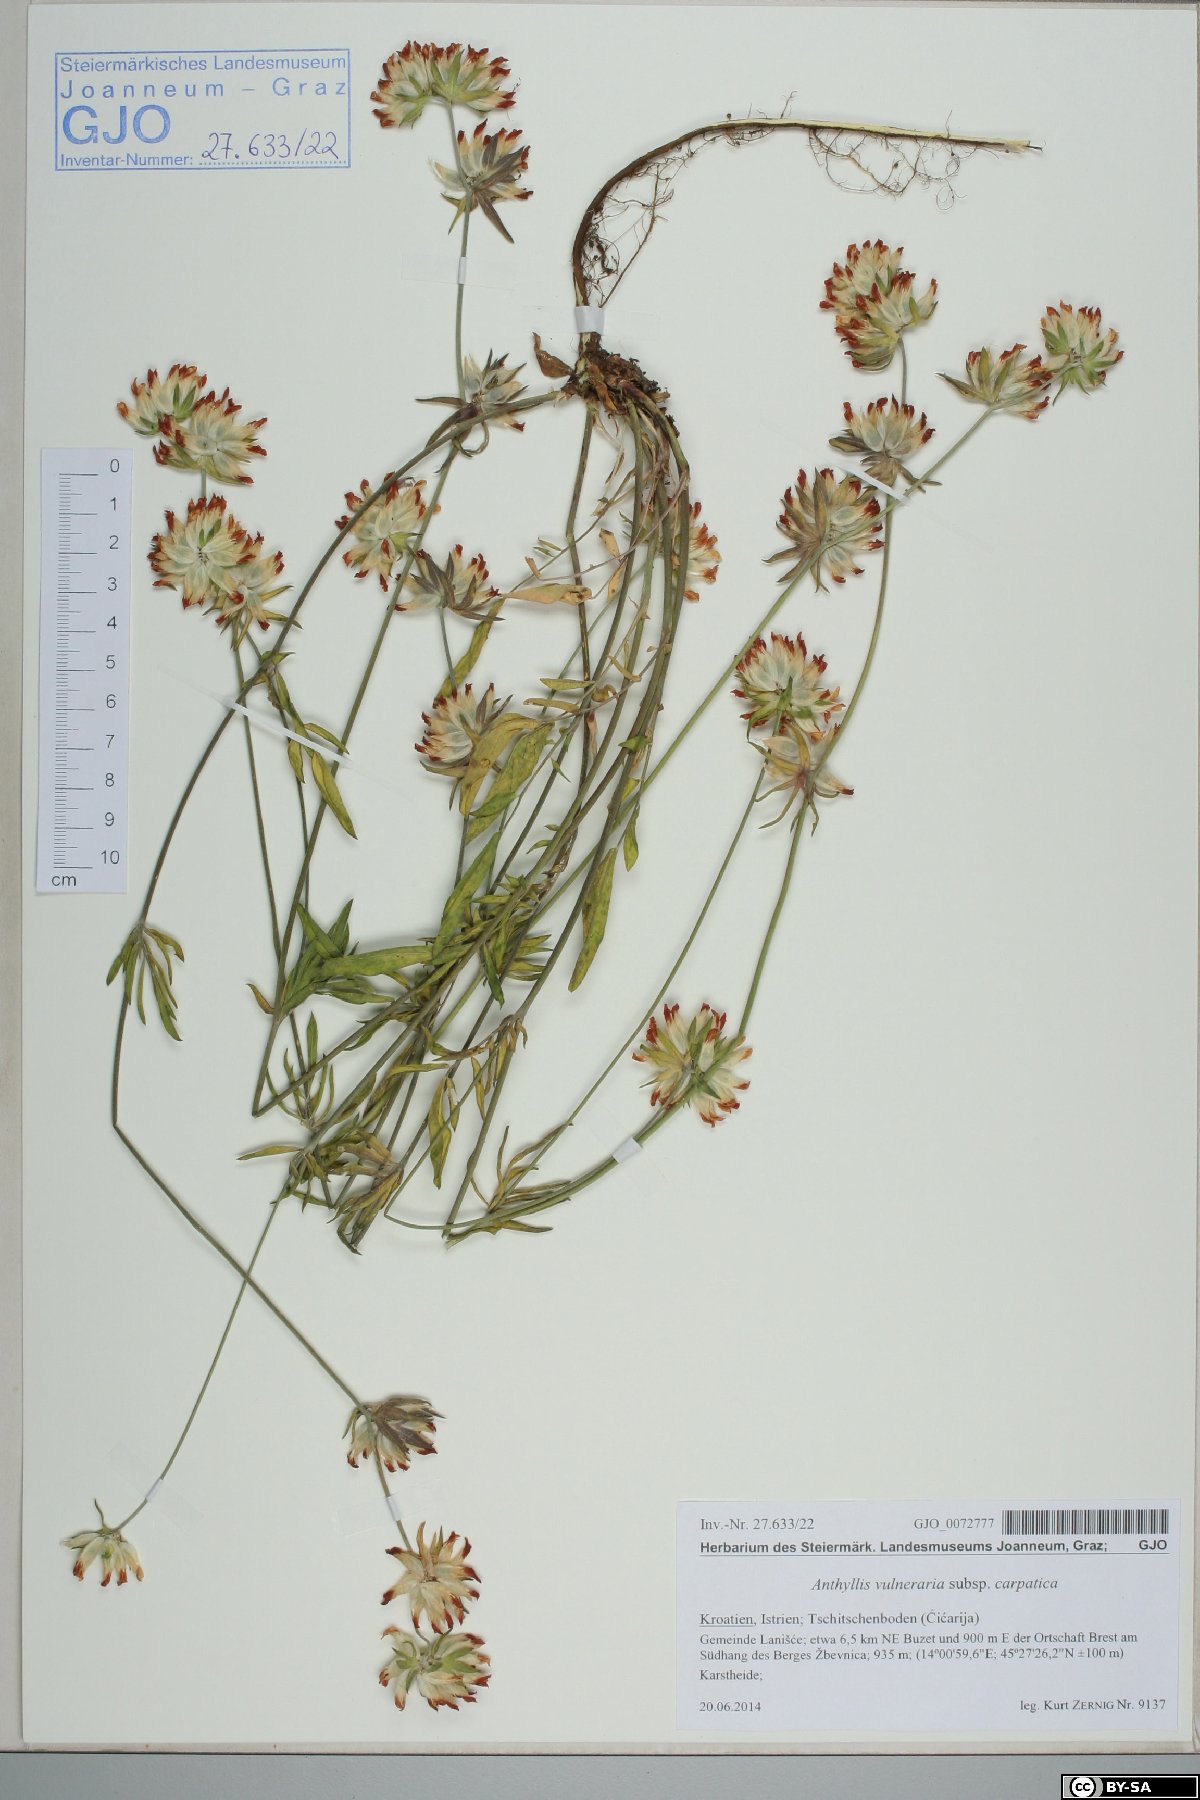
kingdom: Plantae
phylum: Tracheophyta
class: Magnoliopsida
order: Fabales
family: Fabaceae
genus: Anthyllis
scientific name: Anthyllis vulneraria
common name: Kidney vetch
